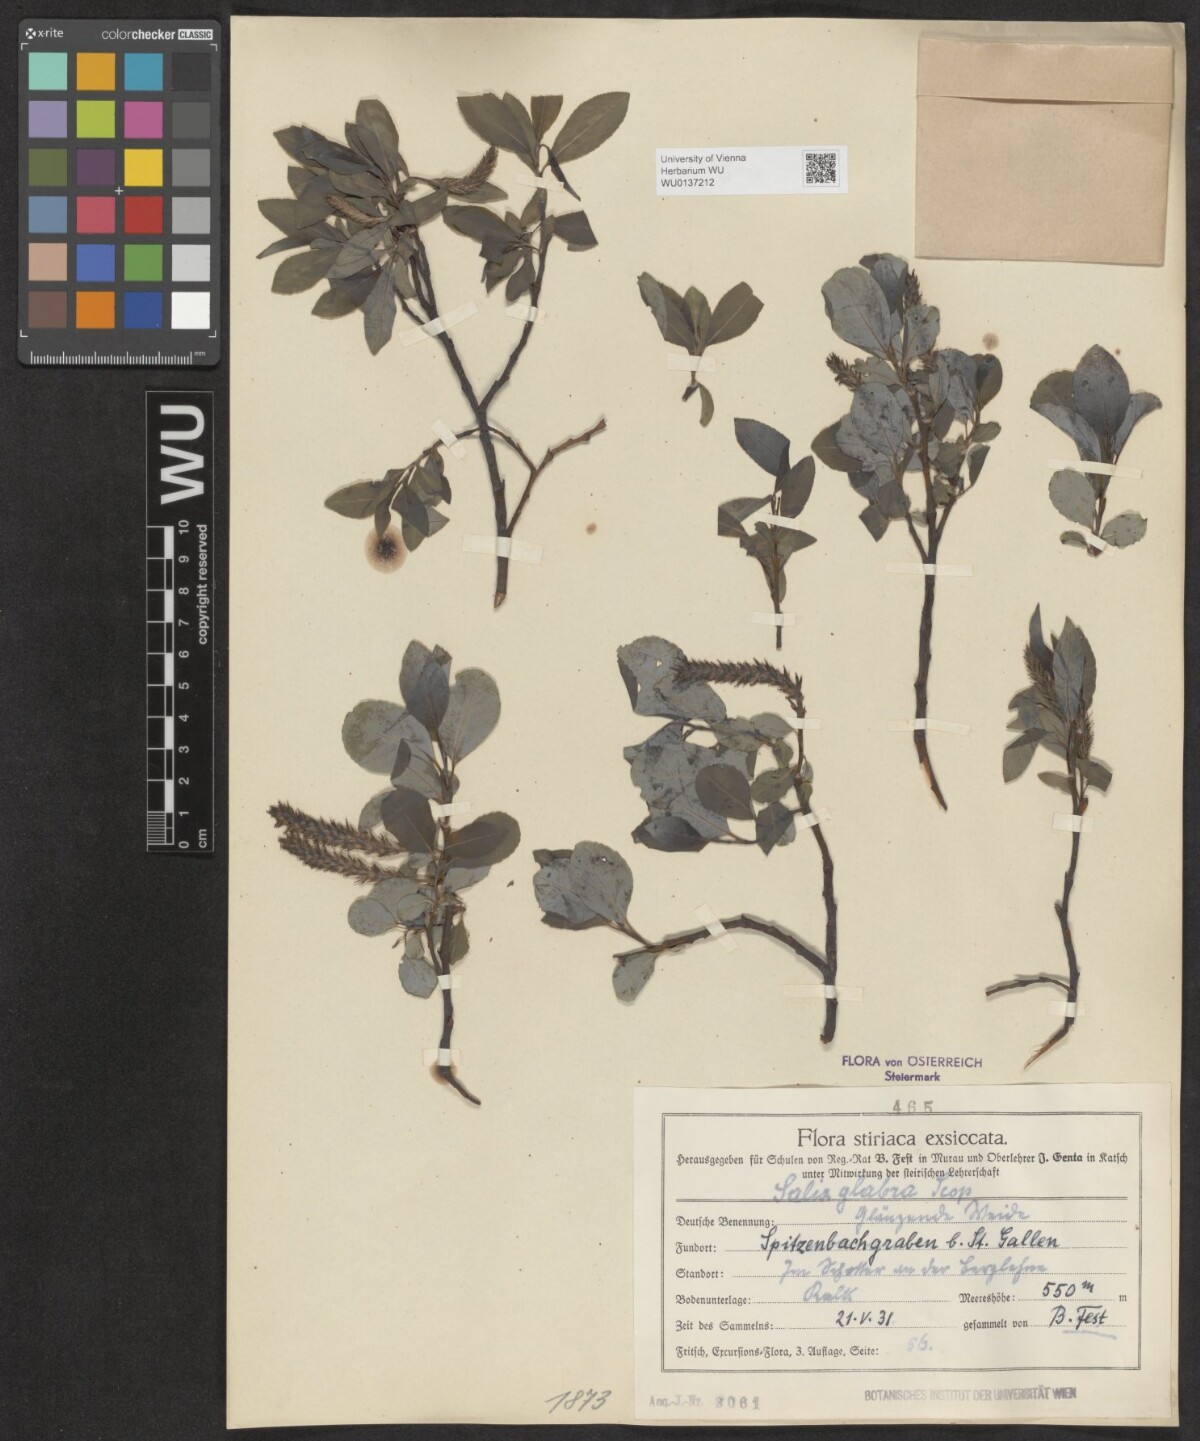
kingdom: Plantae
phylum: Tracheophyta
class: Magnoliopsida
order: Malpighiales
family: Salicaceae
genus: Salix
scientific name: Salix glabra
